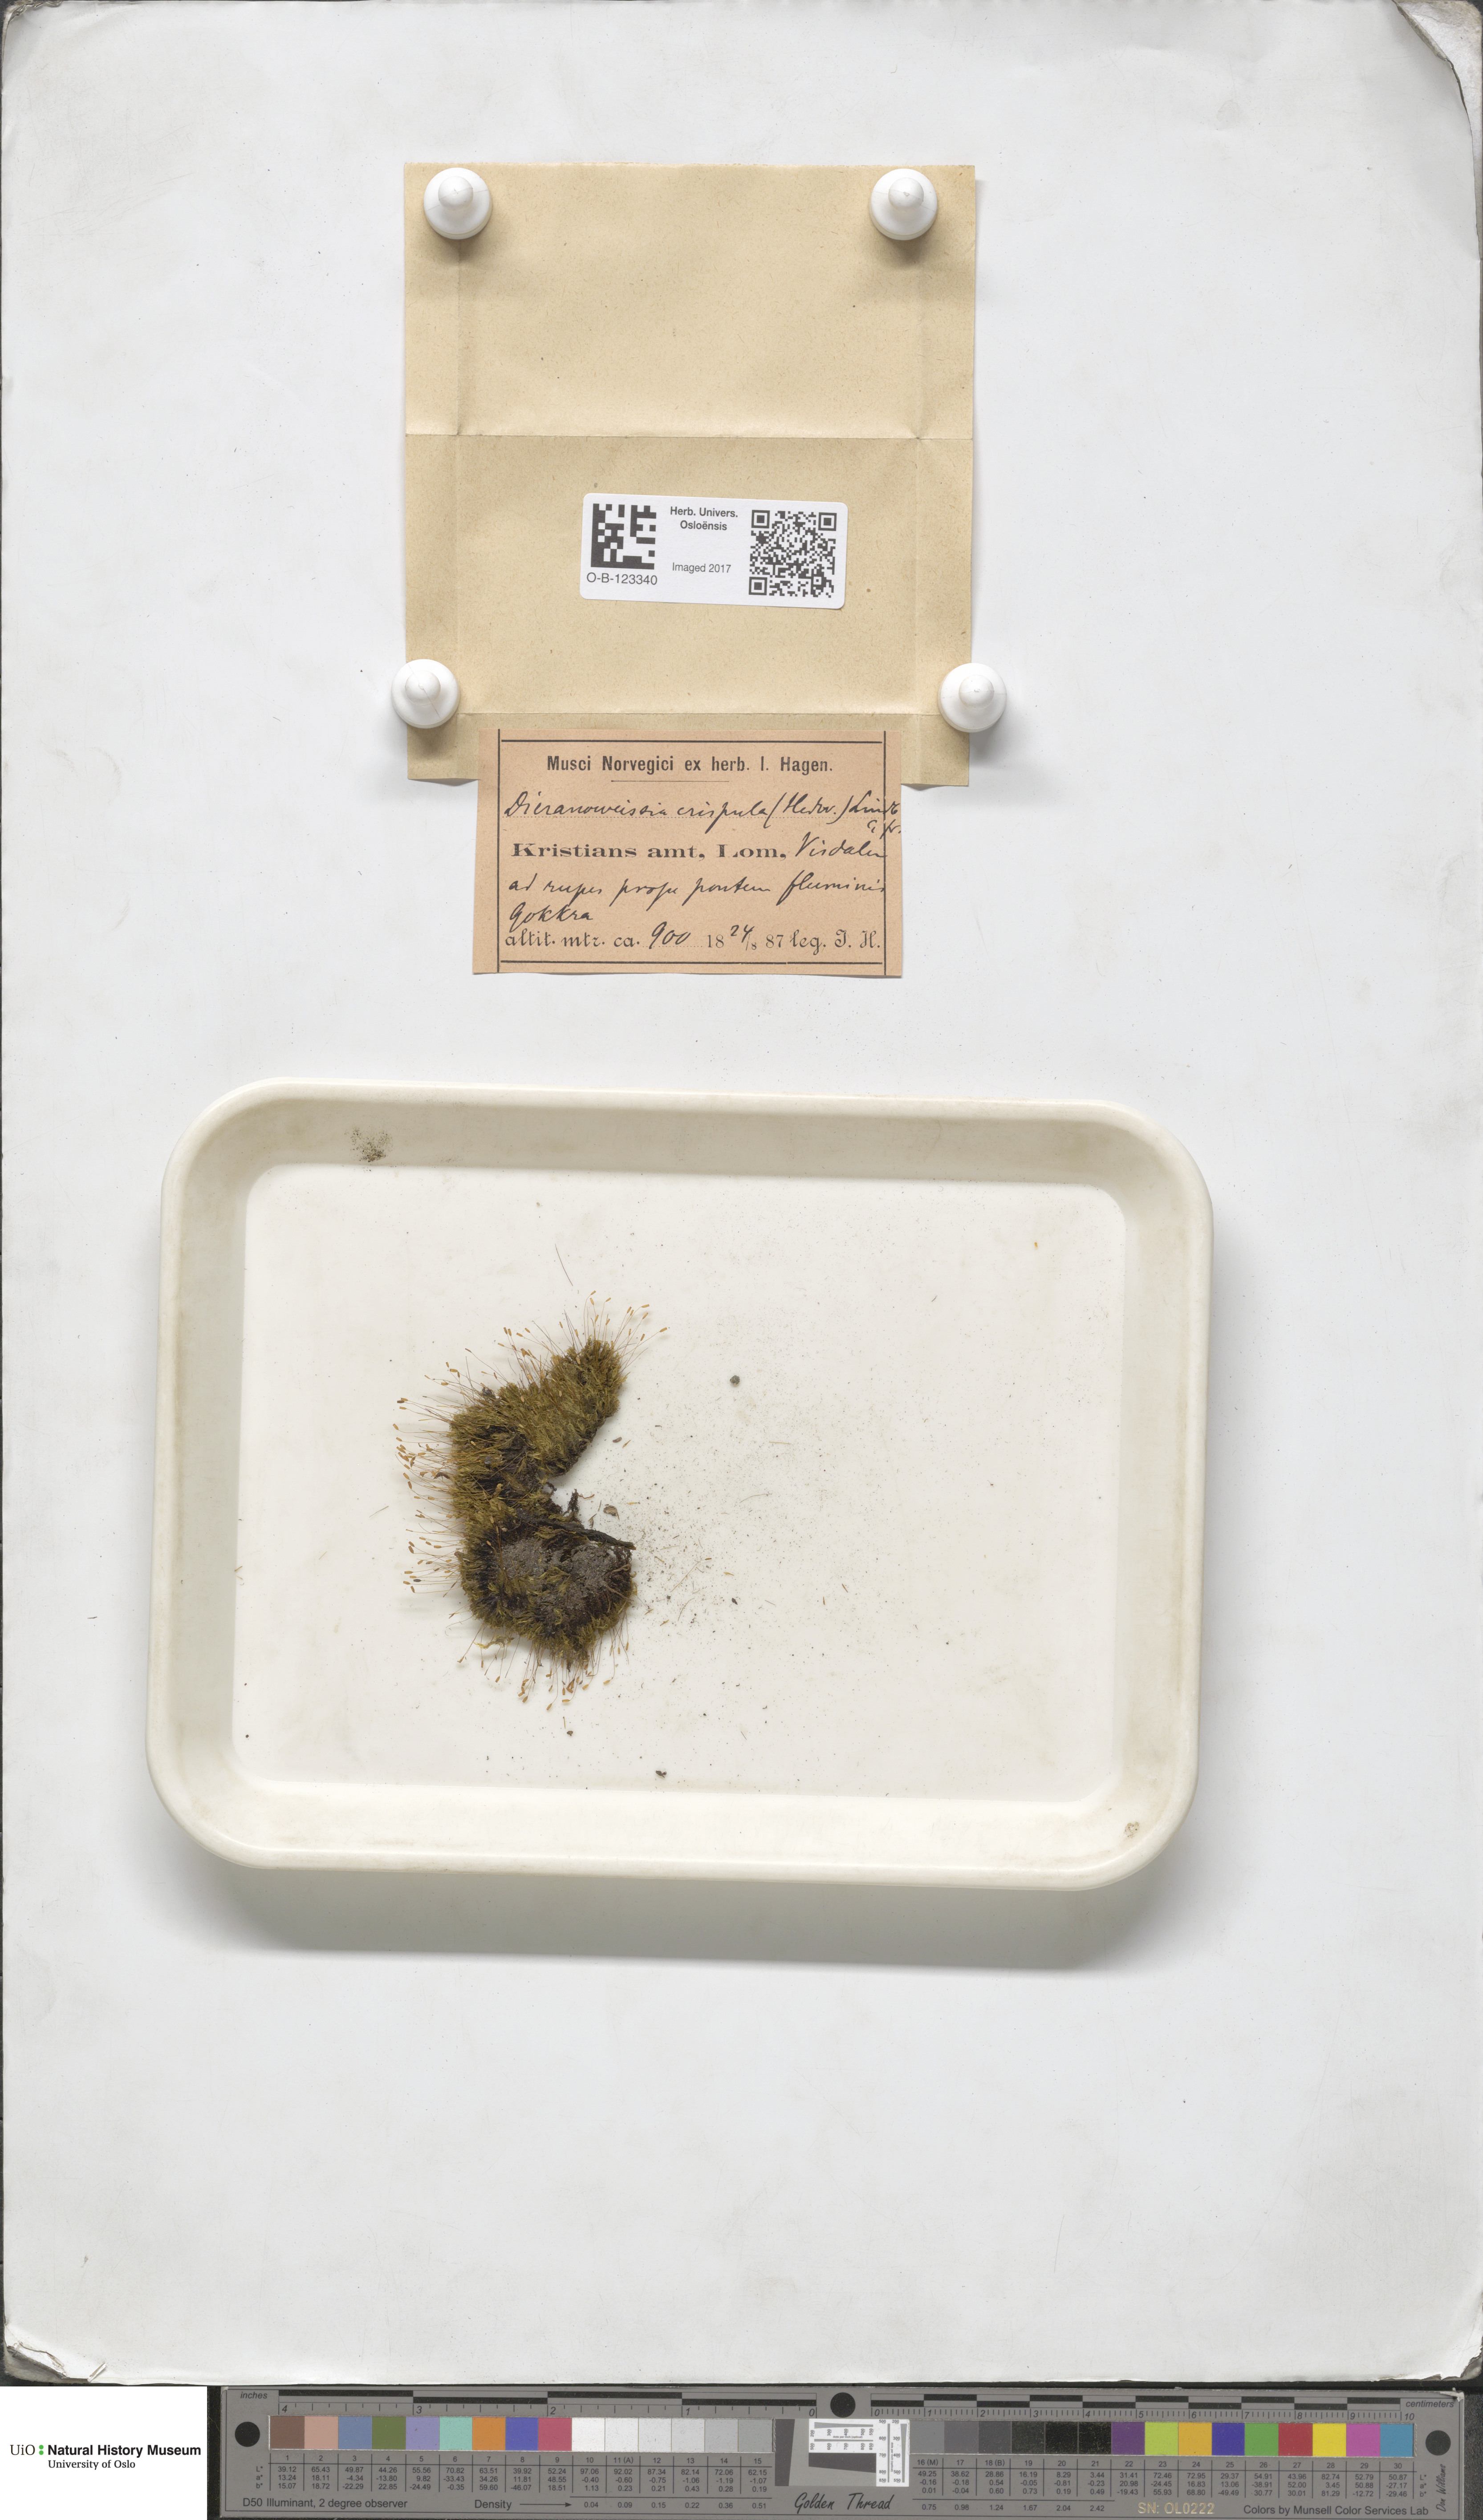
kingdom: Plantae
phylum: Bryophyta
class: Bryopsida
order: Scouleriales
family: Hymenolomataceae
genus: Hymenoloma
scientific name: Hymenoloma crispulum
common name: Mountain pincushion
